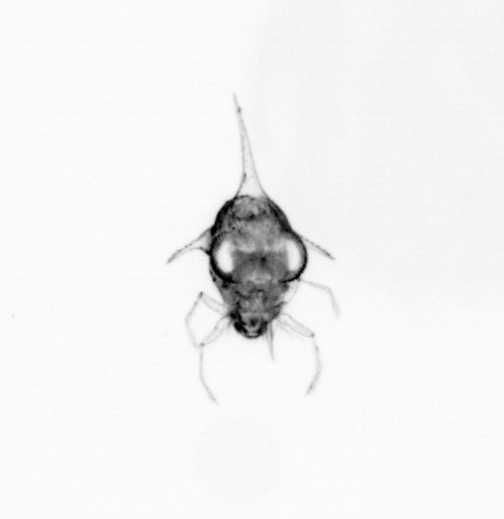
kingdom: Animalia
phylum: Arthropoda
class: Malacostraca
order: Decapoda
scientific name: Decapoda
